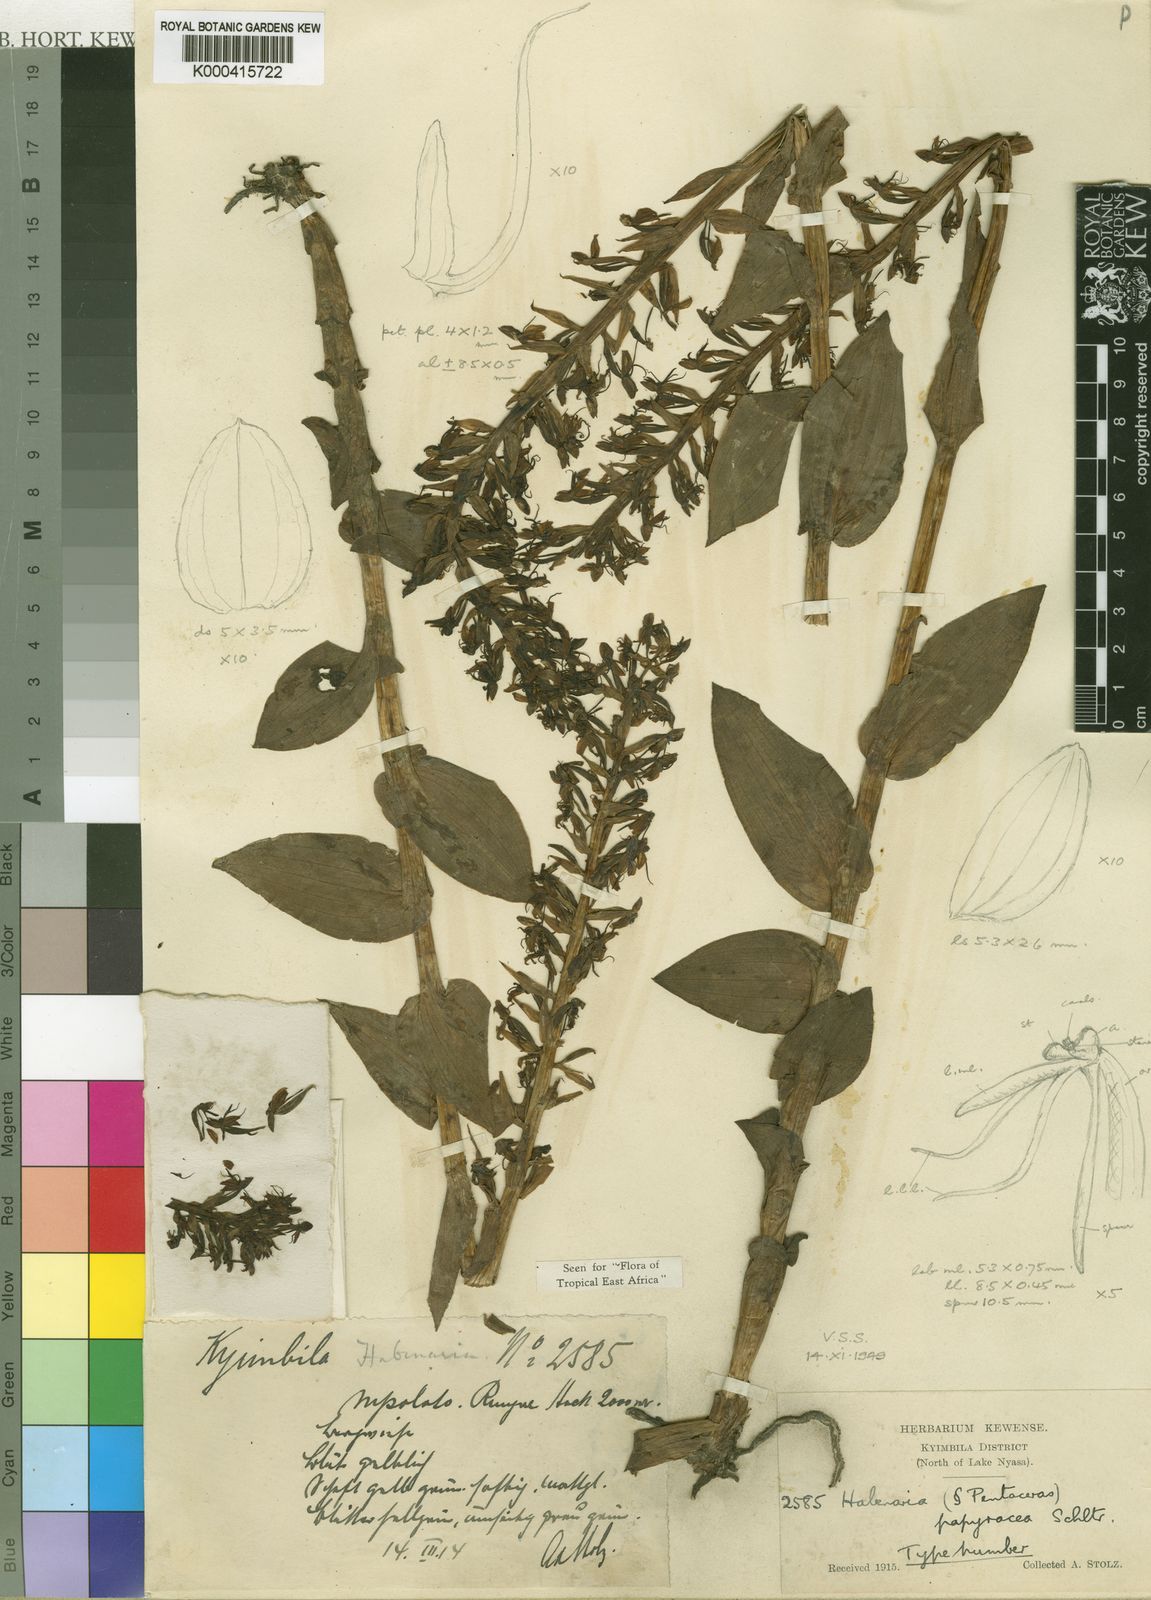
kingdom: Plantae
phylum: Tracheophyta
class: Liliopsida
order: Asparagales
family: Orchidaceae
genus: Habenaria
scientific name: Habenaria papyracea
